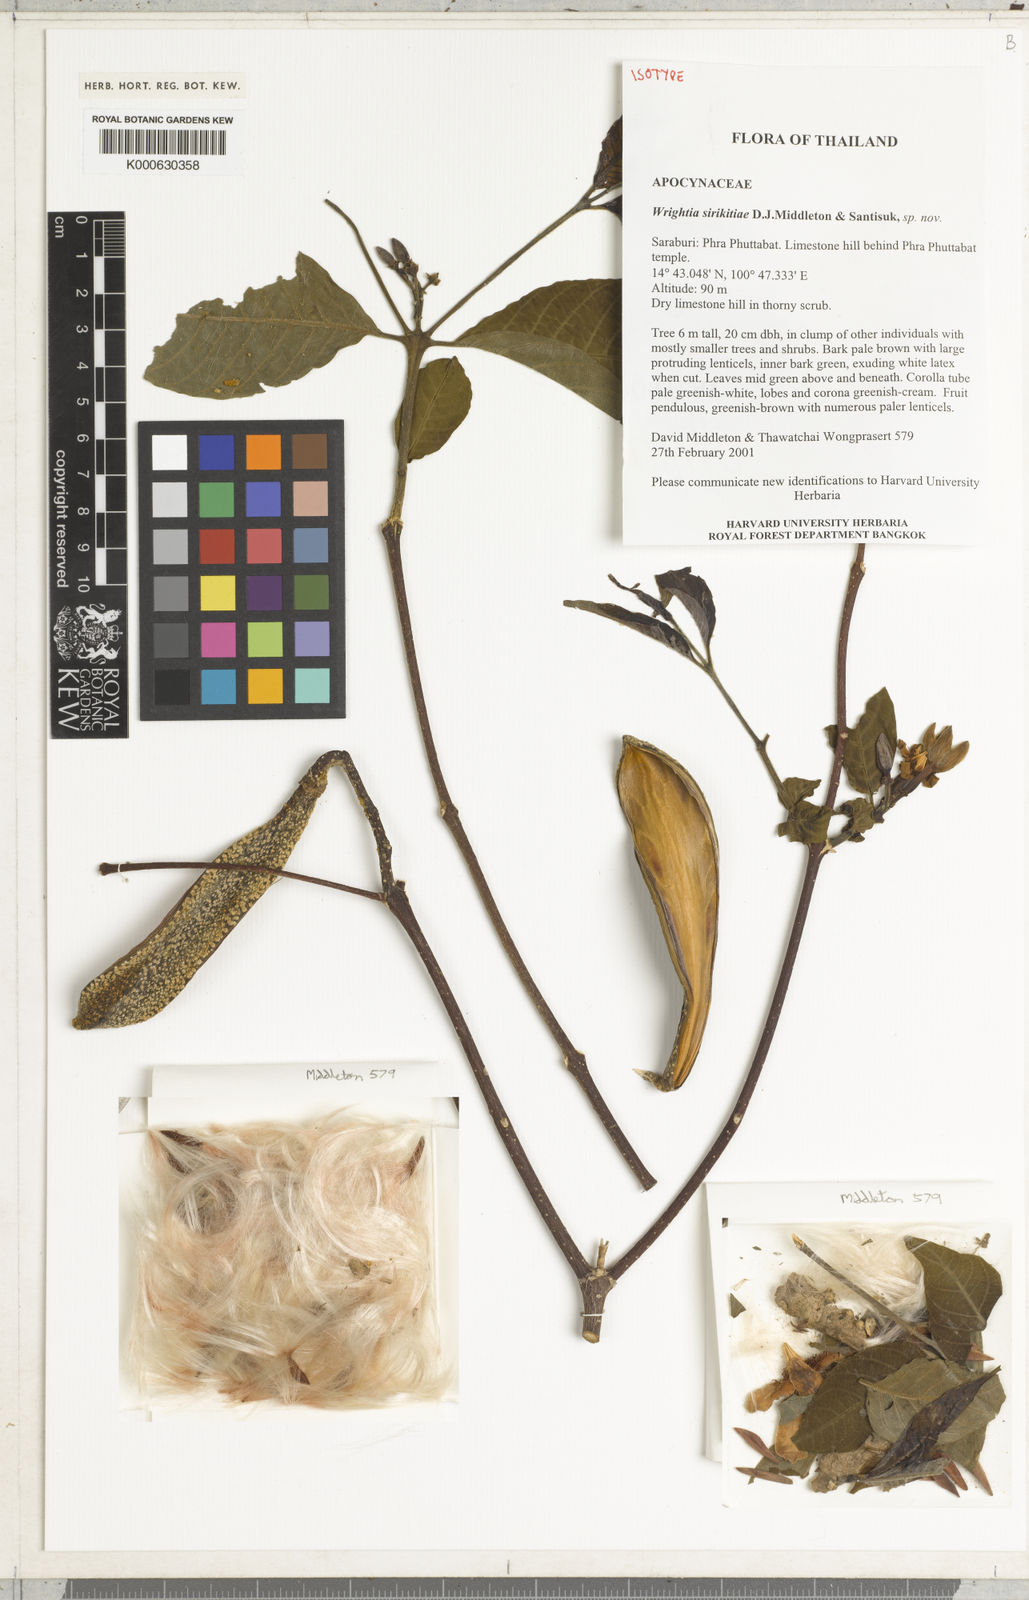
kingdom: Plantae
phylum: Tracheophyta
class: Magnoliopsida
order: Gentianales
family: Apocynaceae
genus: Wrightia
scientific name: Wrightia sirikitiae
